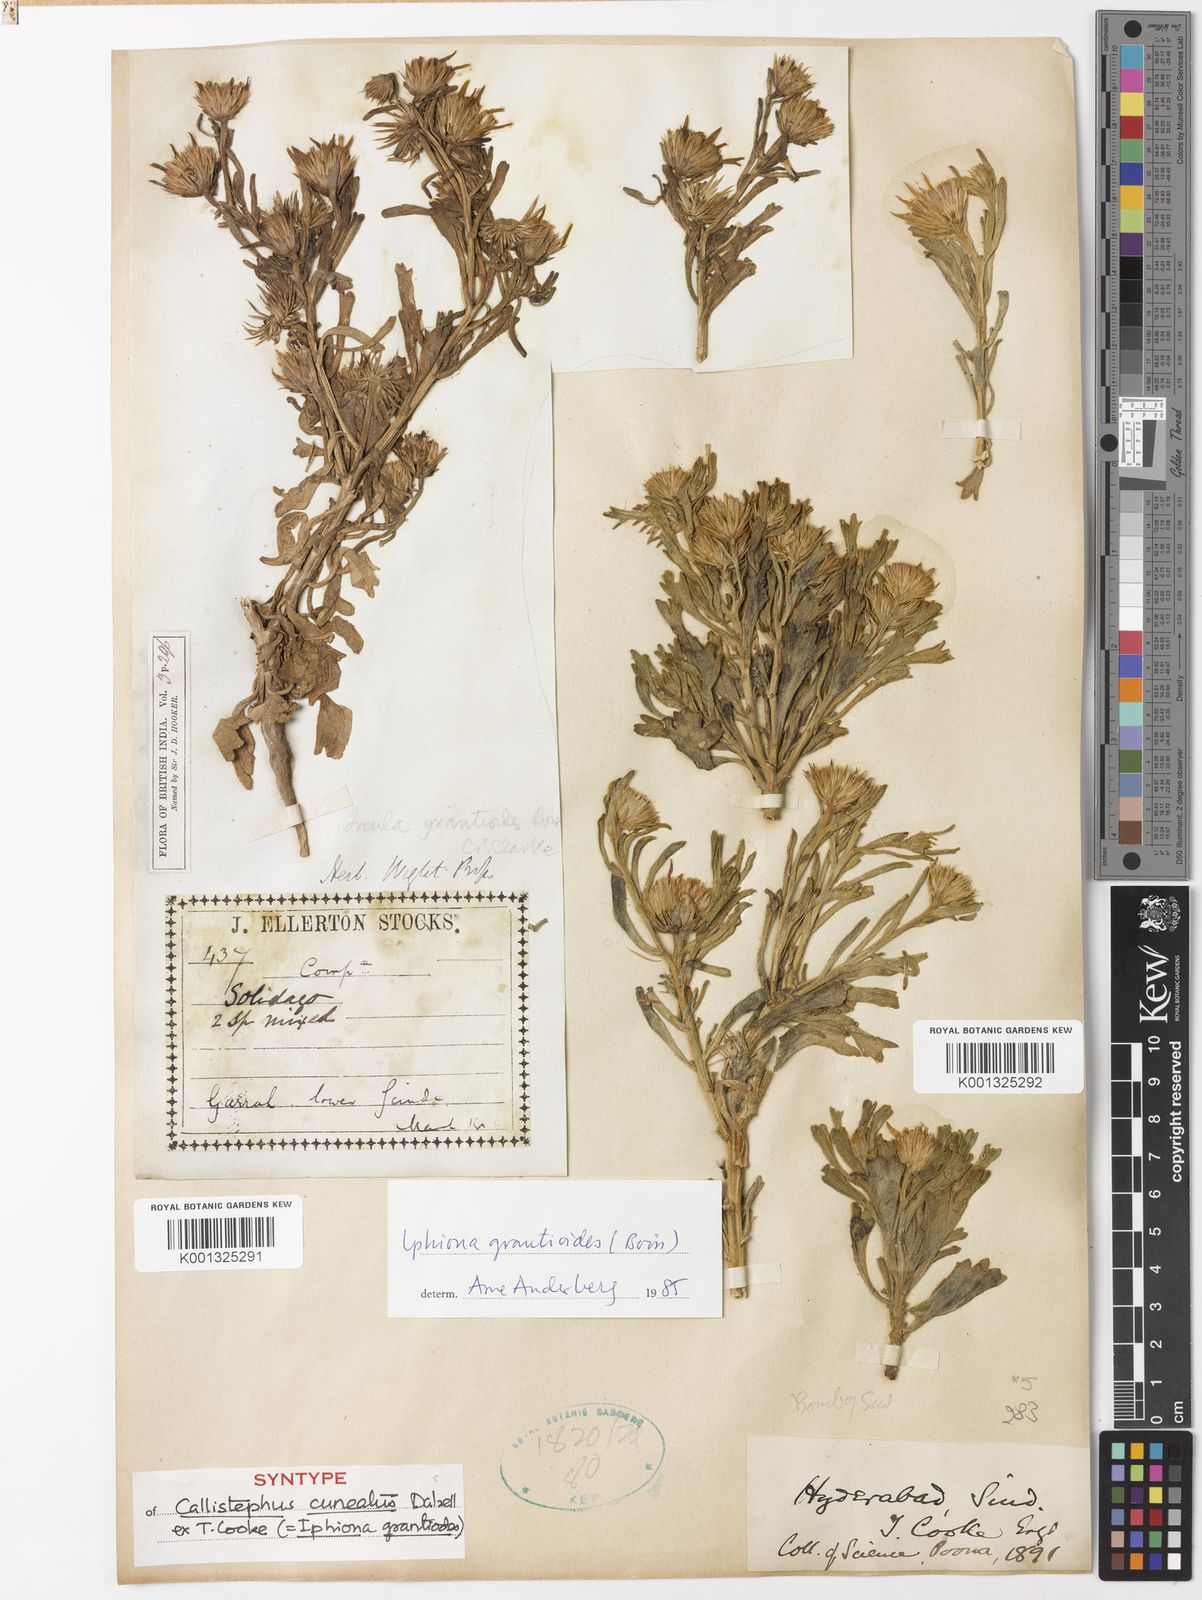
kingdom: Plantae
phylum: Tracheophyta
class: Magnoliopsida
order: Asterales
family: Asteraceae
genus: Iphiona
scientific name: Iphiona grantioides
